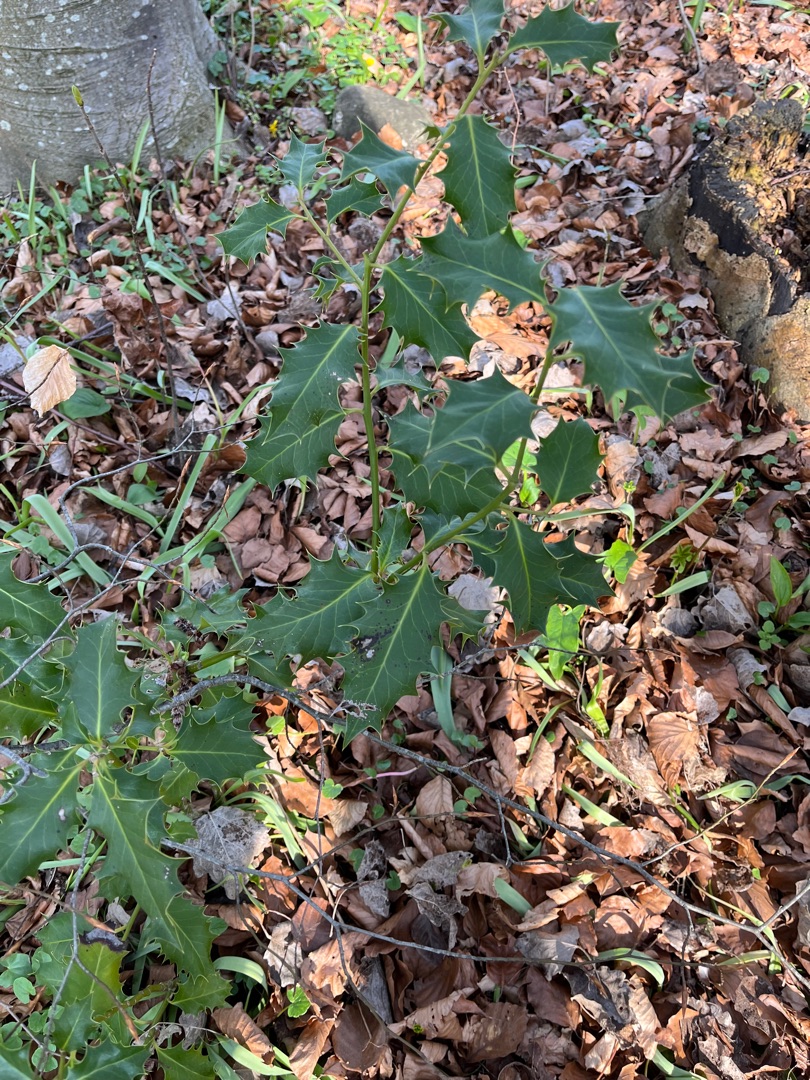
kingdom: Plantae
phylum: Tracheophyta
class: Magnoliopsida
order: Aquifoliales
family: Aquifoliaceae
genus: Ilex
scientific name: Ilex aquifolium
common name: Kristtorn
